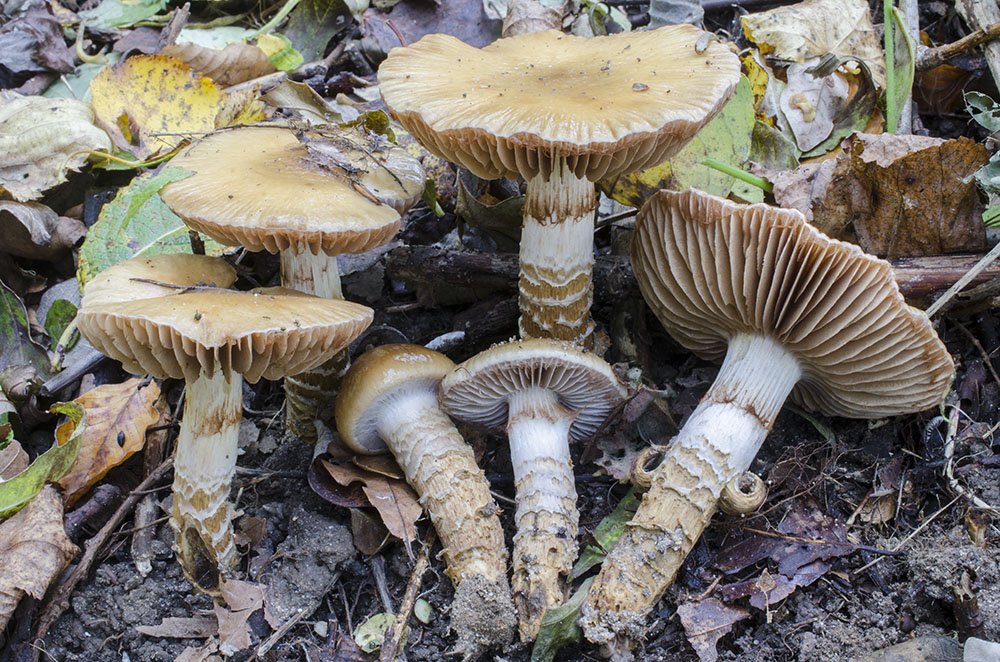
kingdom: Fungi
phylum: Basidiomycota
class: Agaricomycetes
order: Agaricales
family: Cortinariaceae
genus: Cortinarius
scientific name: Cortinarius trivialis
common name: brunslimet slørhat
